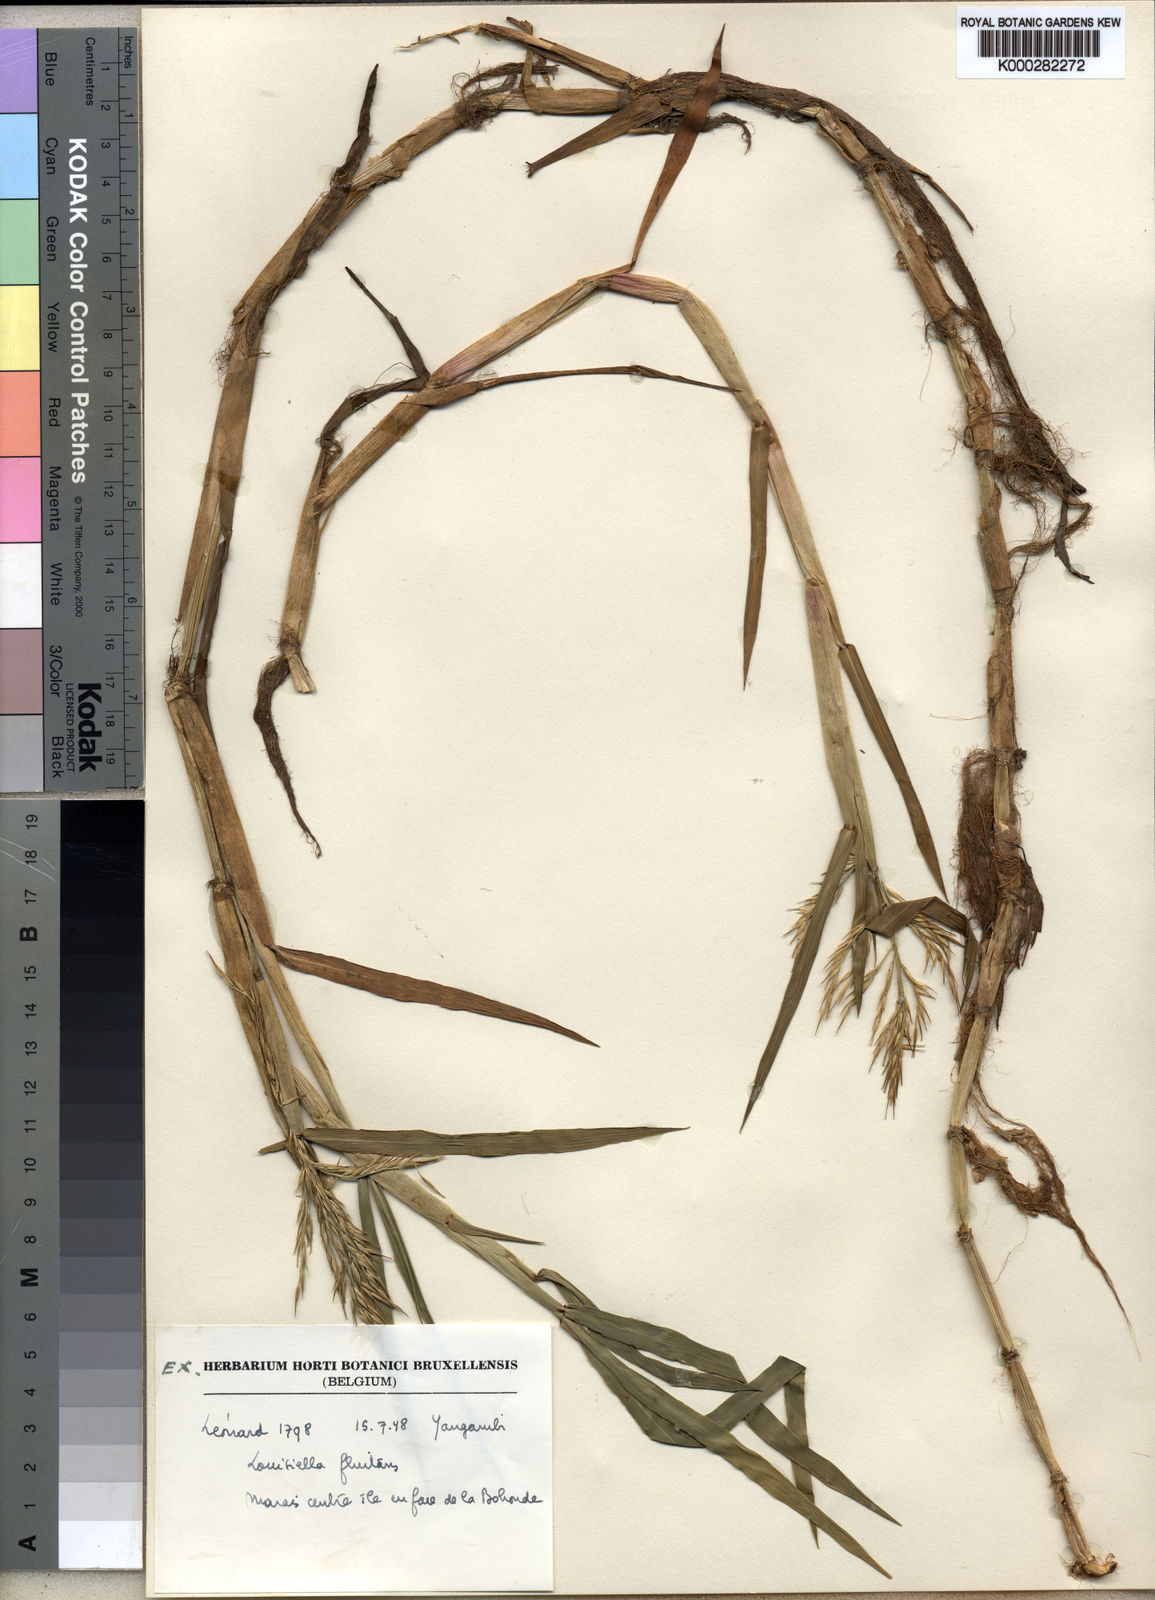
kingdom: Plantae
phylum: Tracheophyta
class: Liliopsida
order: Poales
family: Poaceae
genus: Louisiella
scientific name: Louisiella
